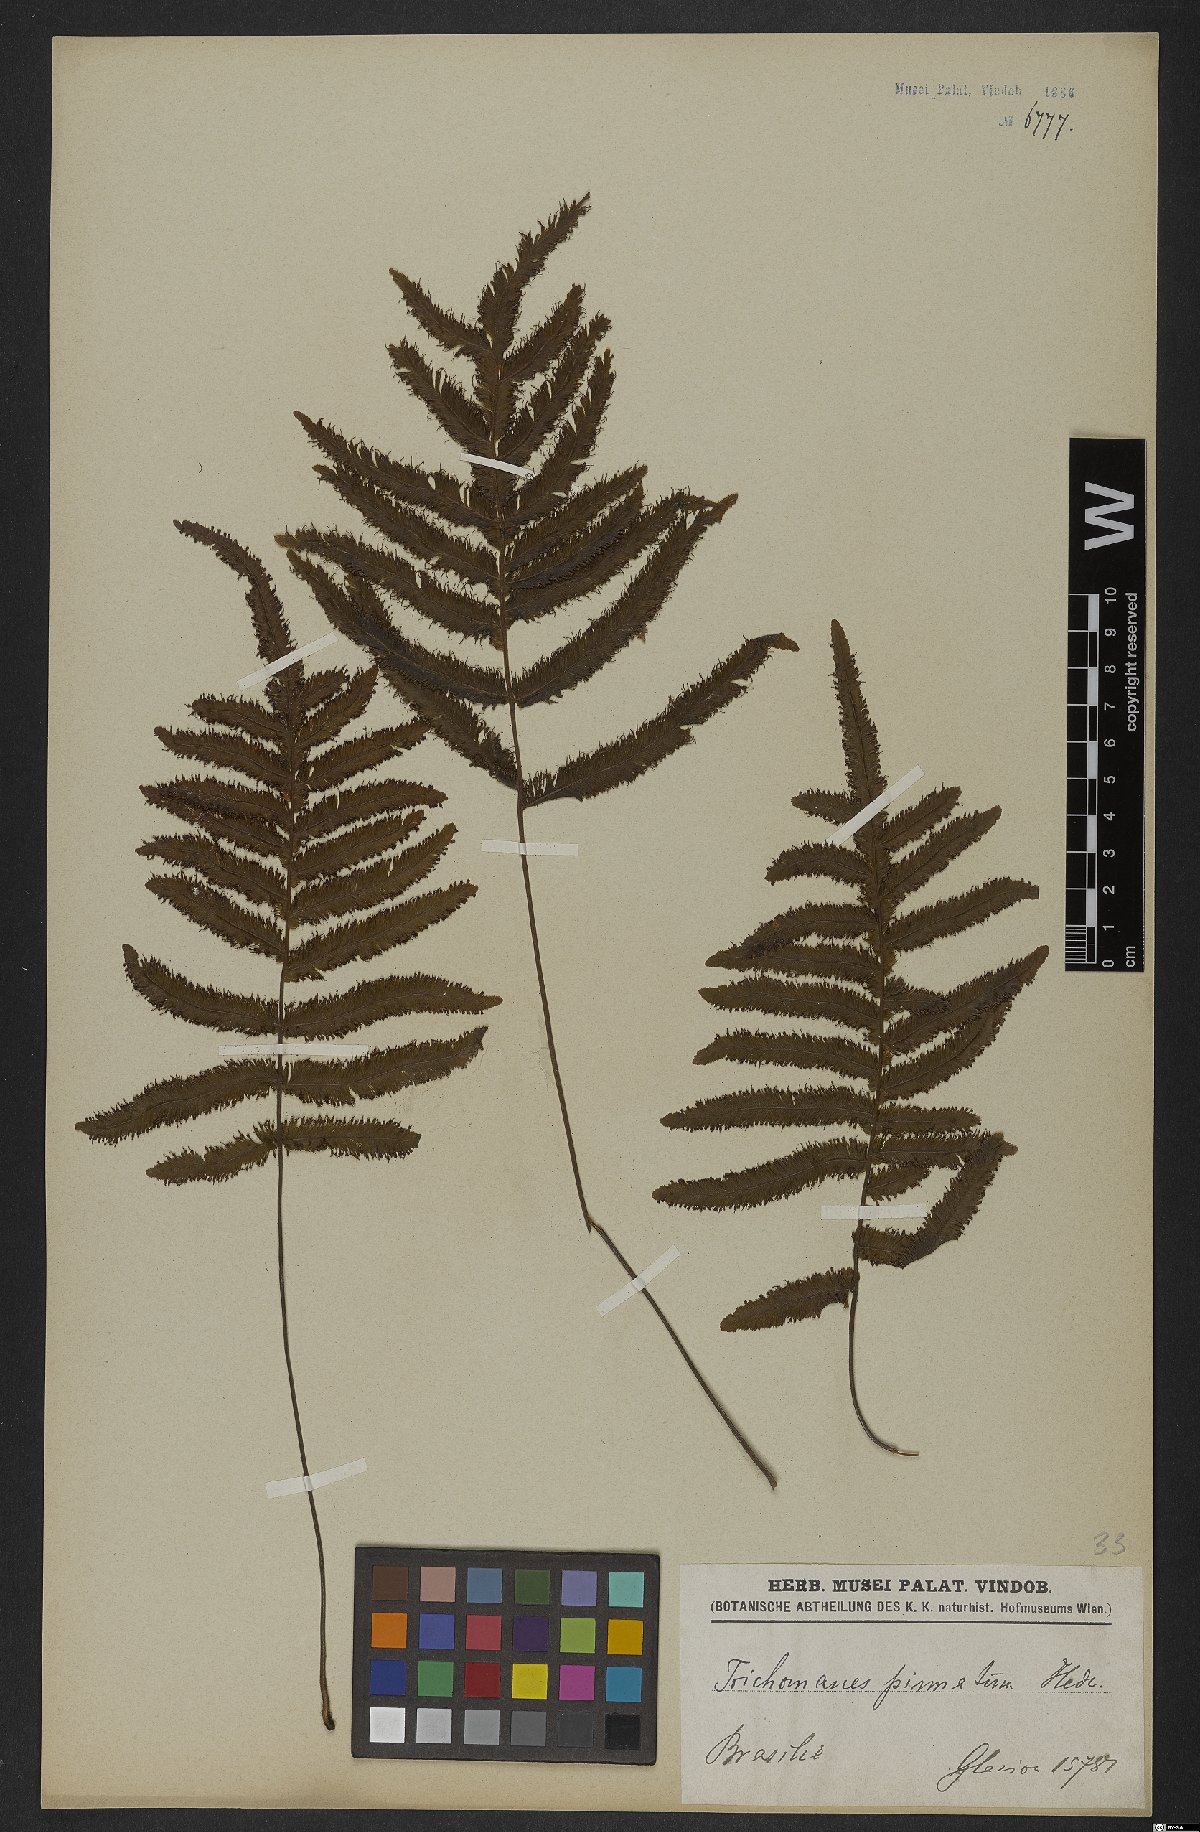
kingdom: Plantae
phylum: Tracheophyta
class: Polypodiopsida
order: Hymenophyllales
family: Hymenophyllaceae
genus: Trichomanes
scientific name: Trichomanes pinnatum
